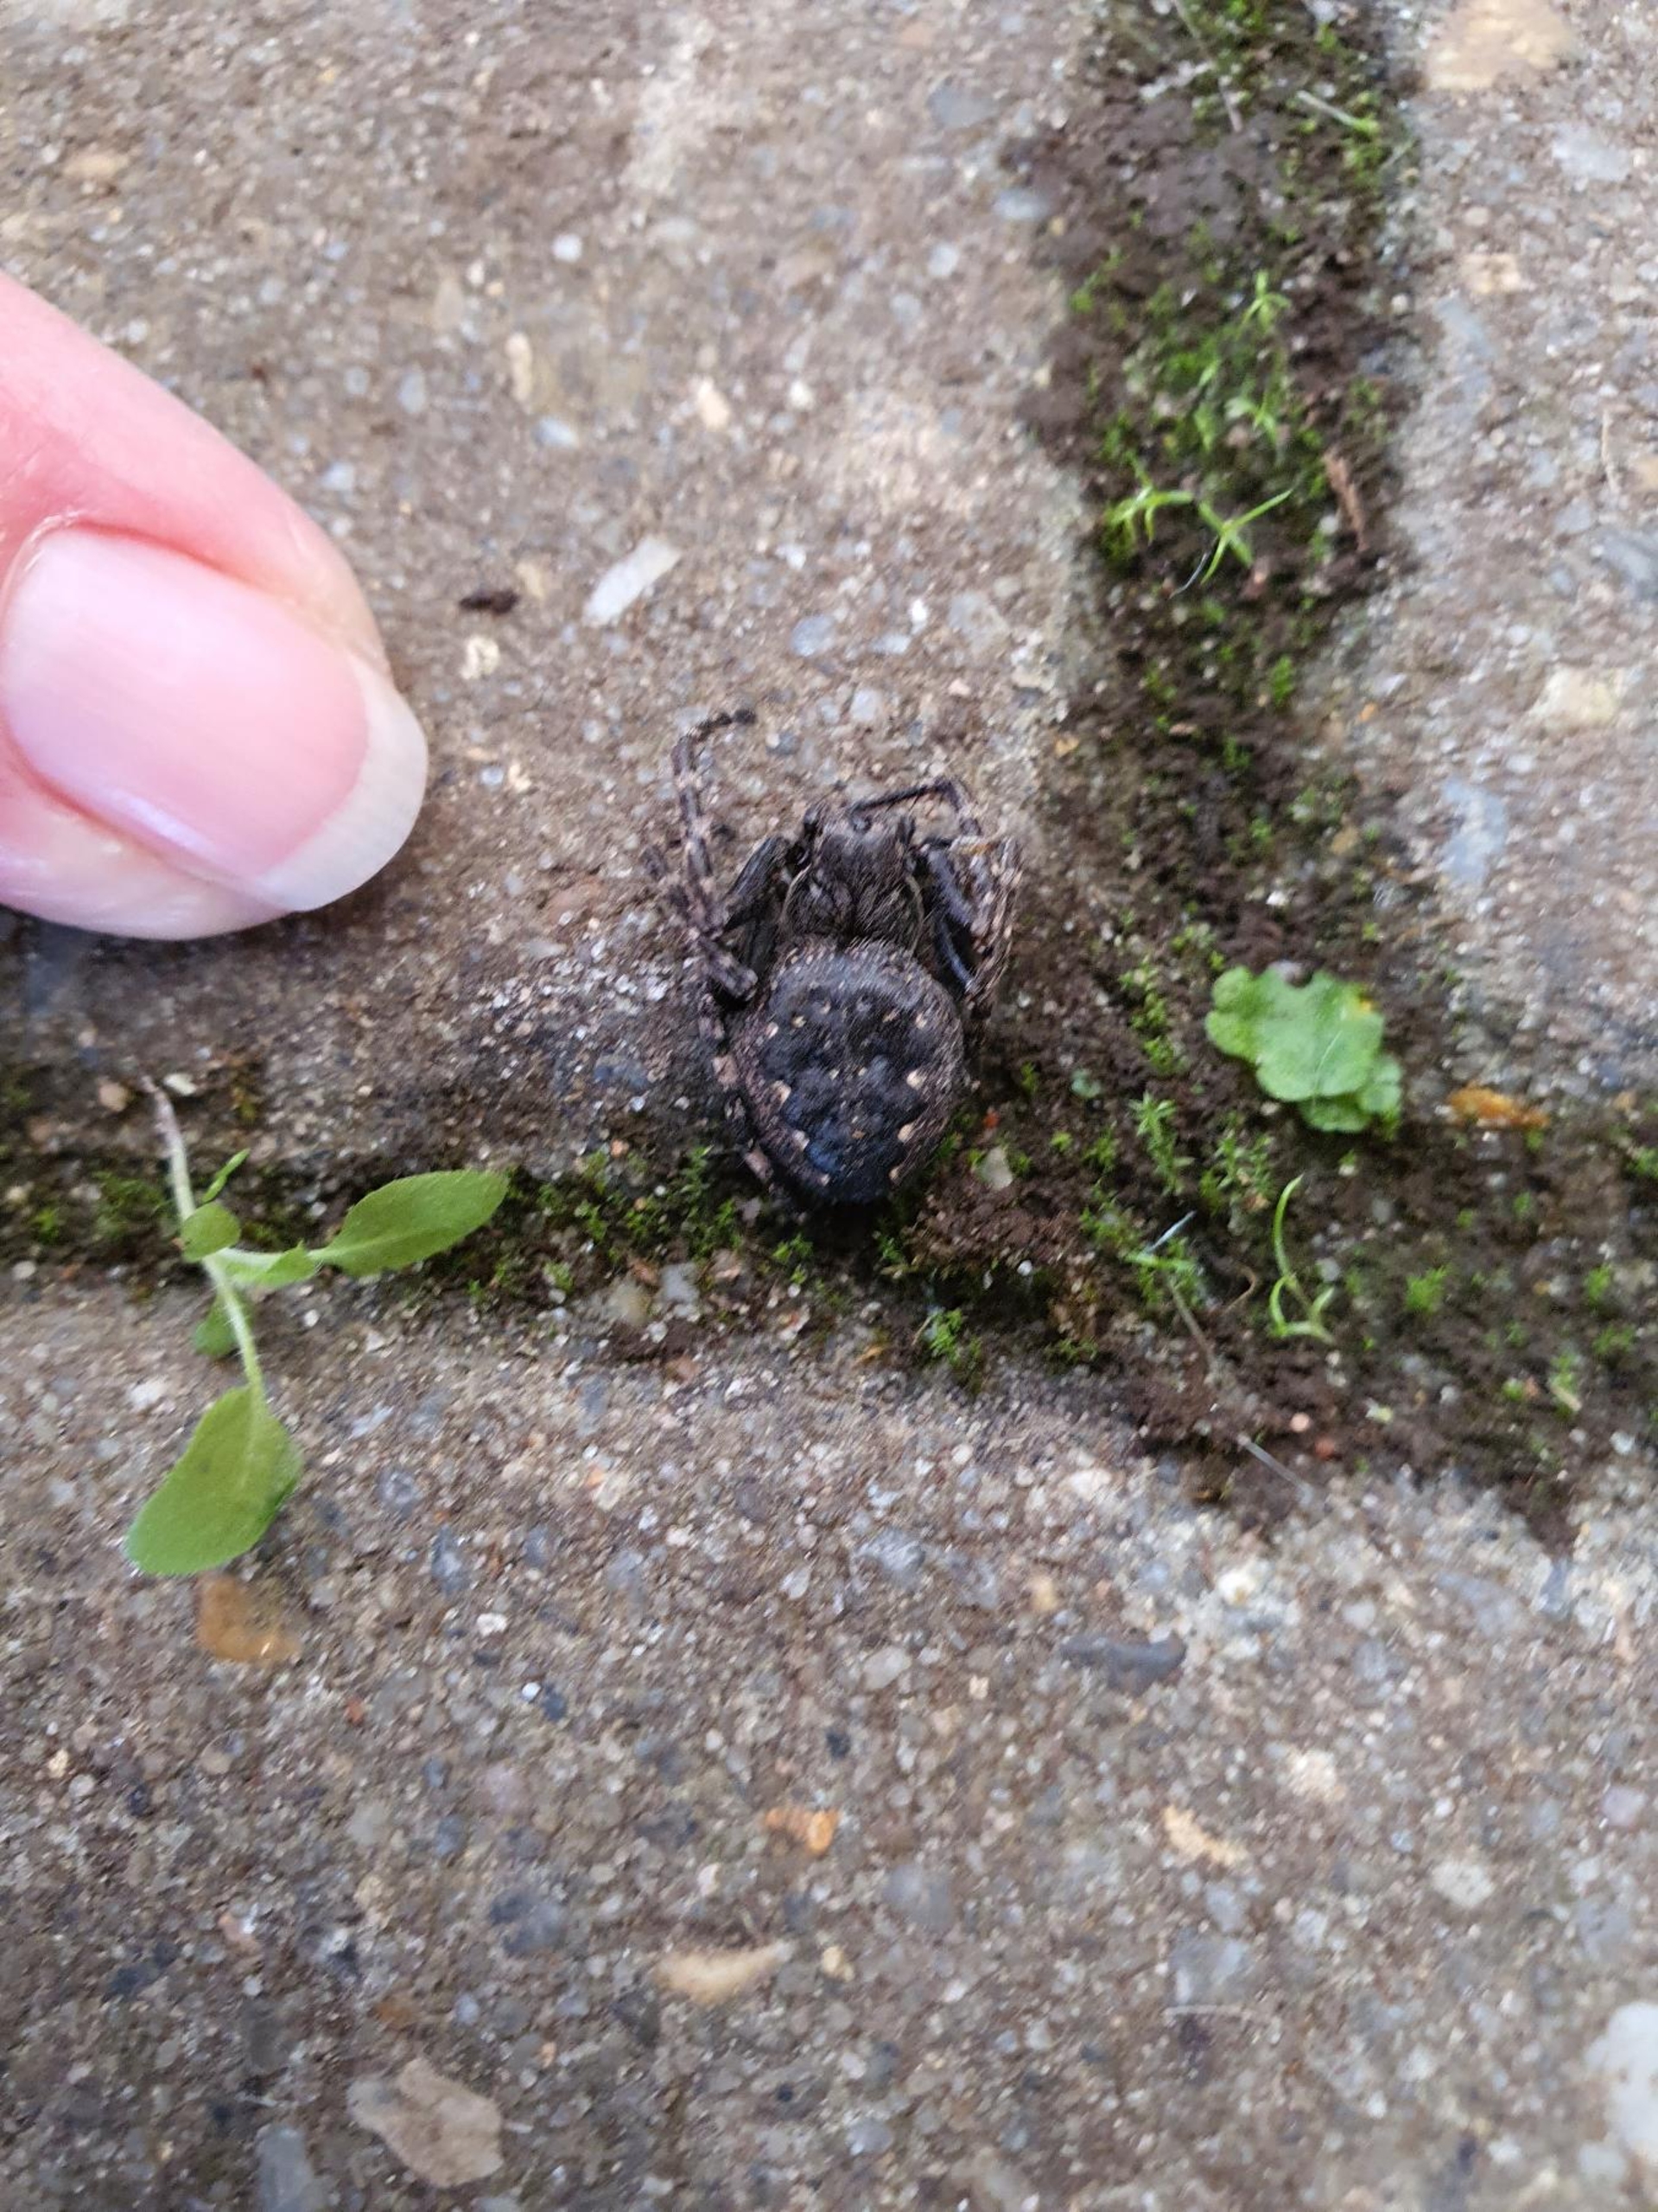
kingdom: Animalia
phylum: Arthropoda
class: Arachnida
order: Araneae
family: Araneidae
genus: Nuctenea
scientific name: Nuctenea umbratica
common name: Flad hjulspinder
